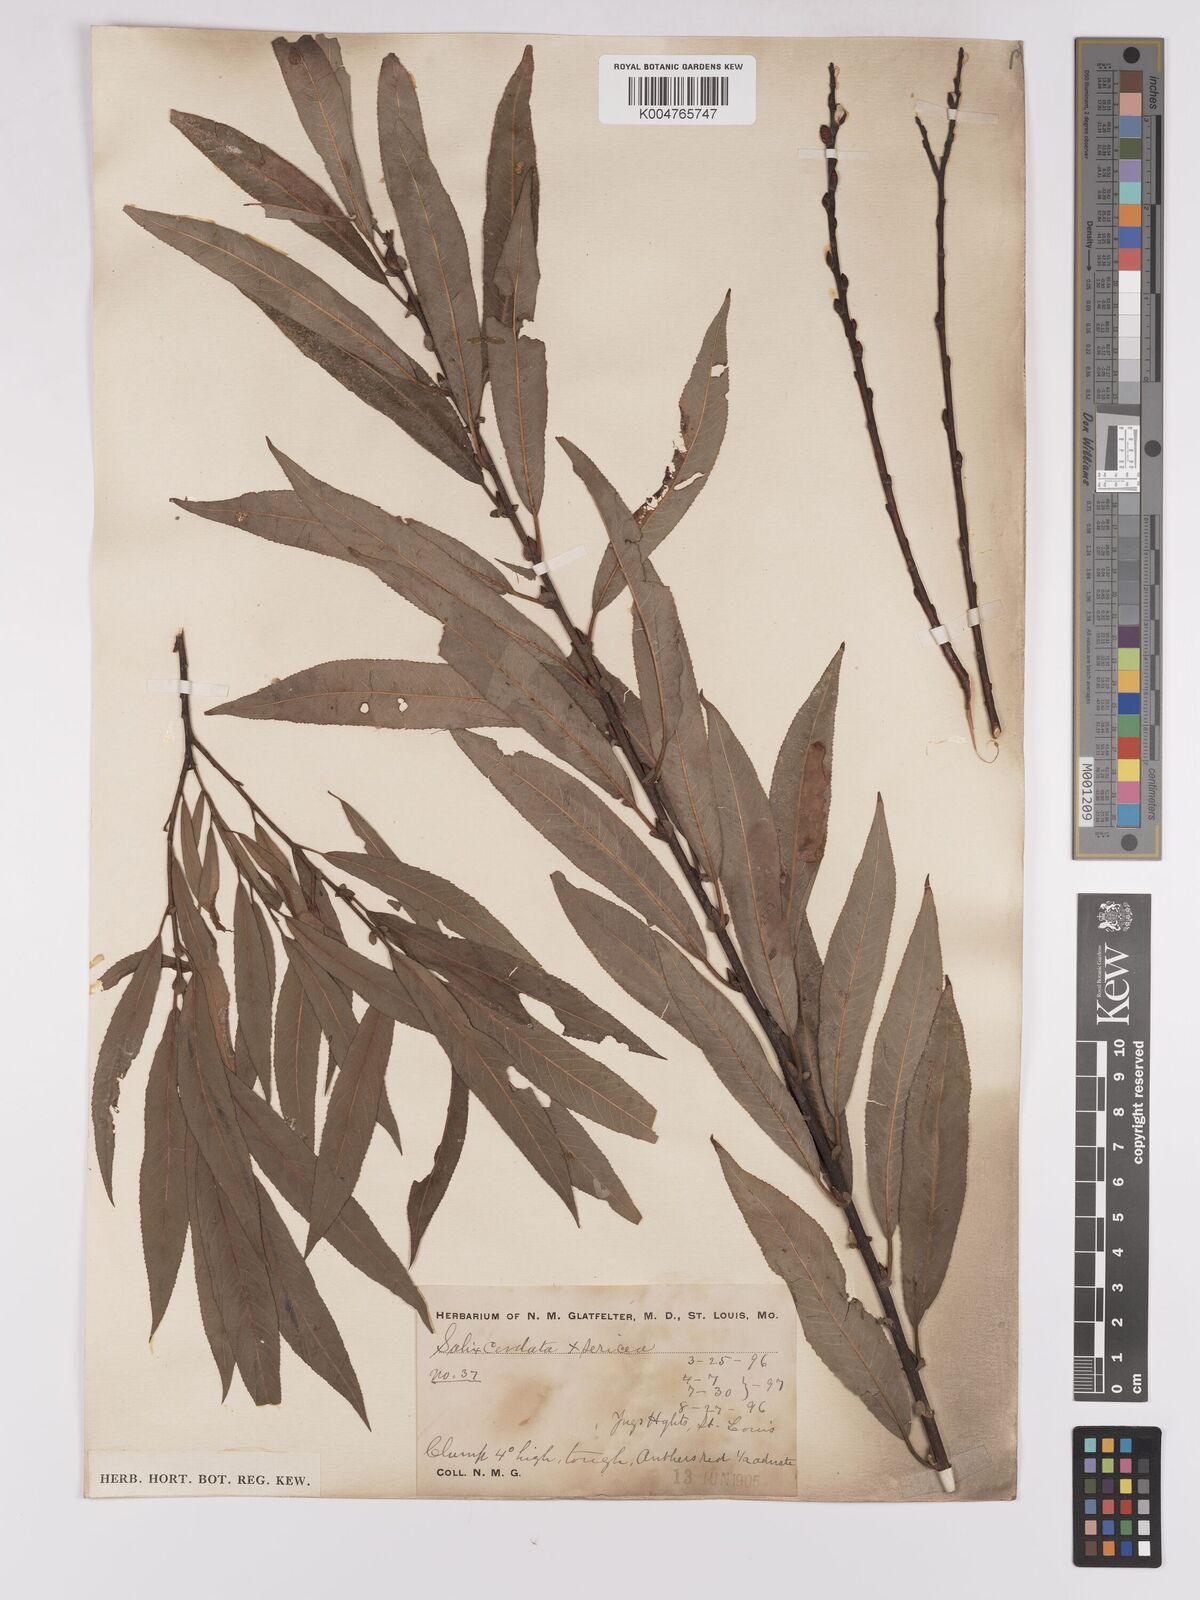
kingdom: Plantae
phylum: Tracheophyta
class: Magnoliopsida
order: Malpighiales
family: Salicaceae
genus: Salix
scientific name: Salix cordata
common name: Heart-leaf willow
